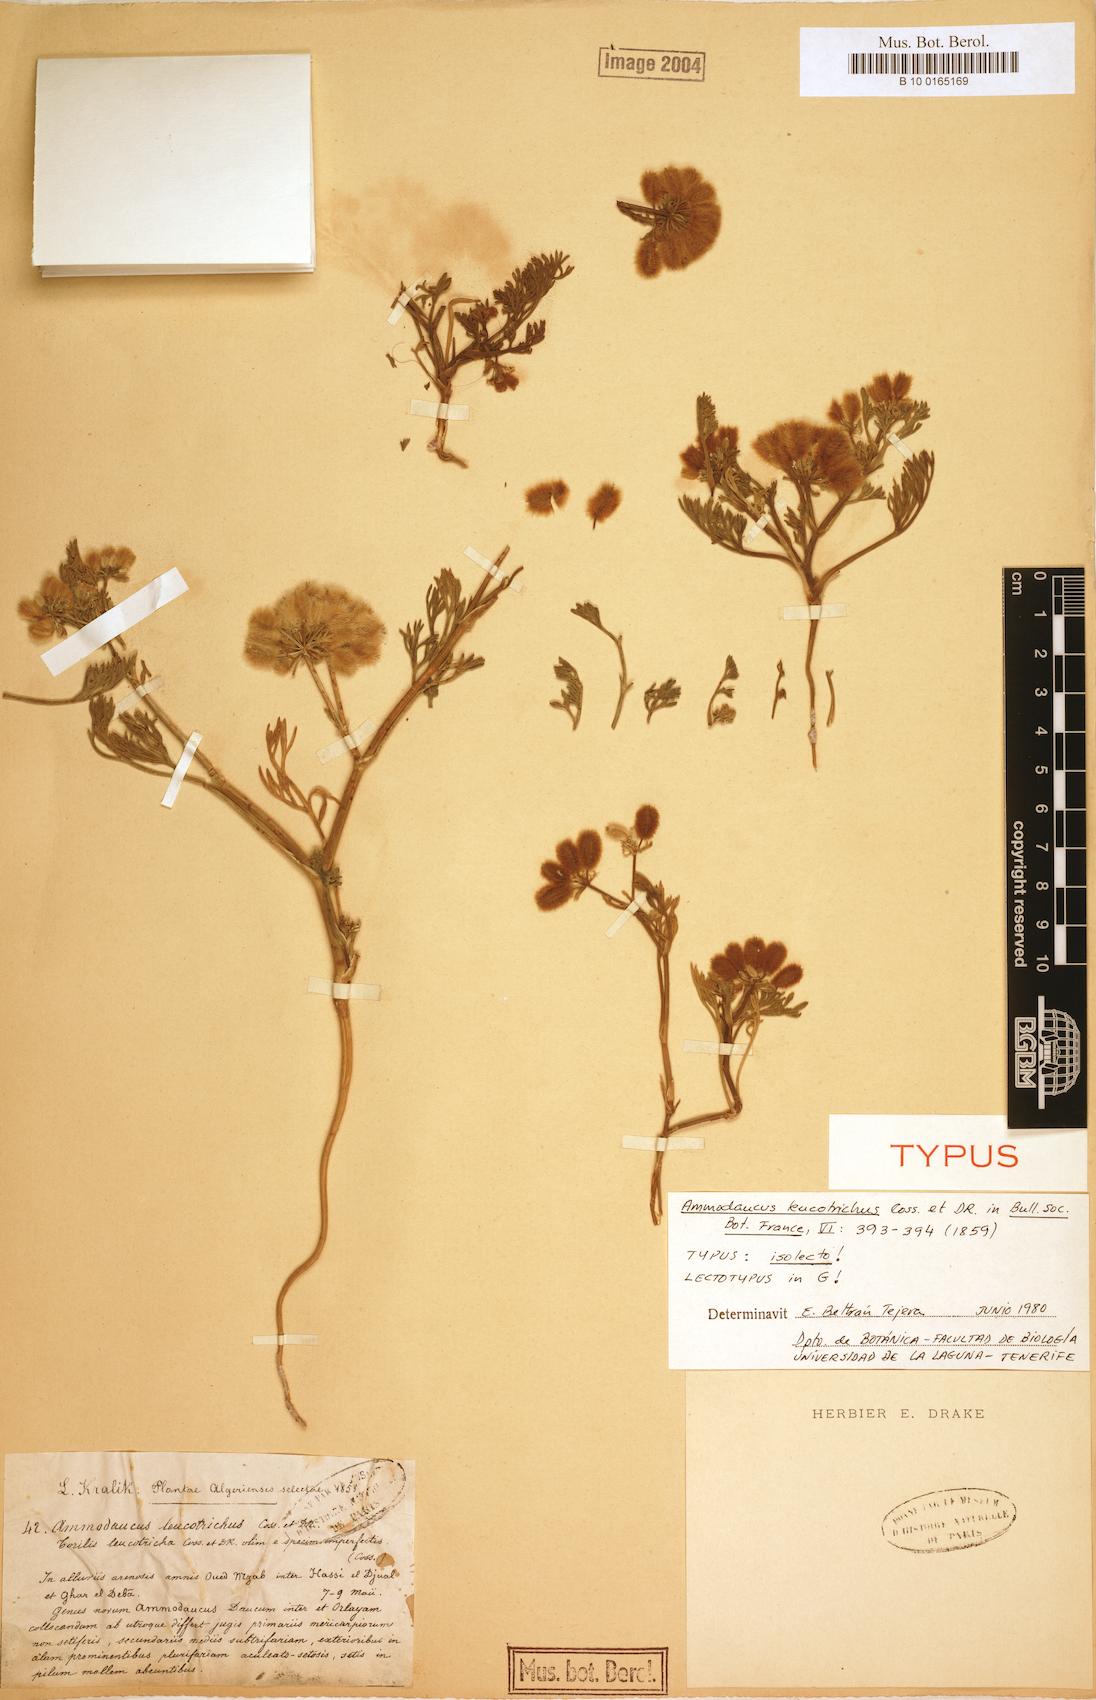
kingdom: Plantae
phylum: Tracheophyta
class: Magnoliopsida
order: Apiales
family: Apiaceae
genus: Ammodaucus
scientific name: Ammodaucus leucotrichus
